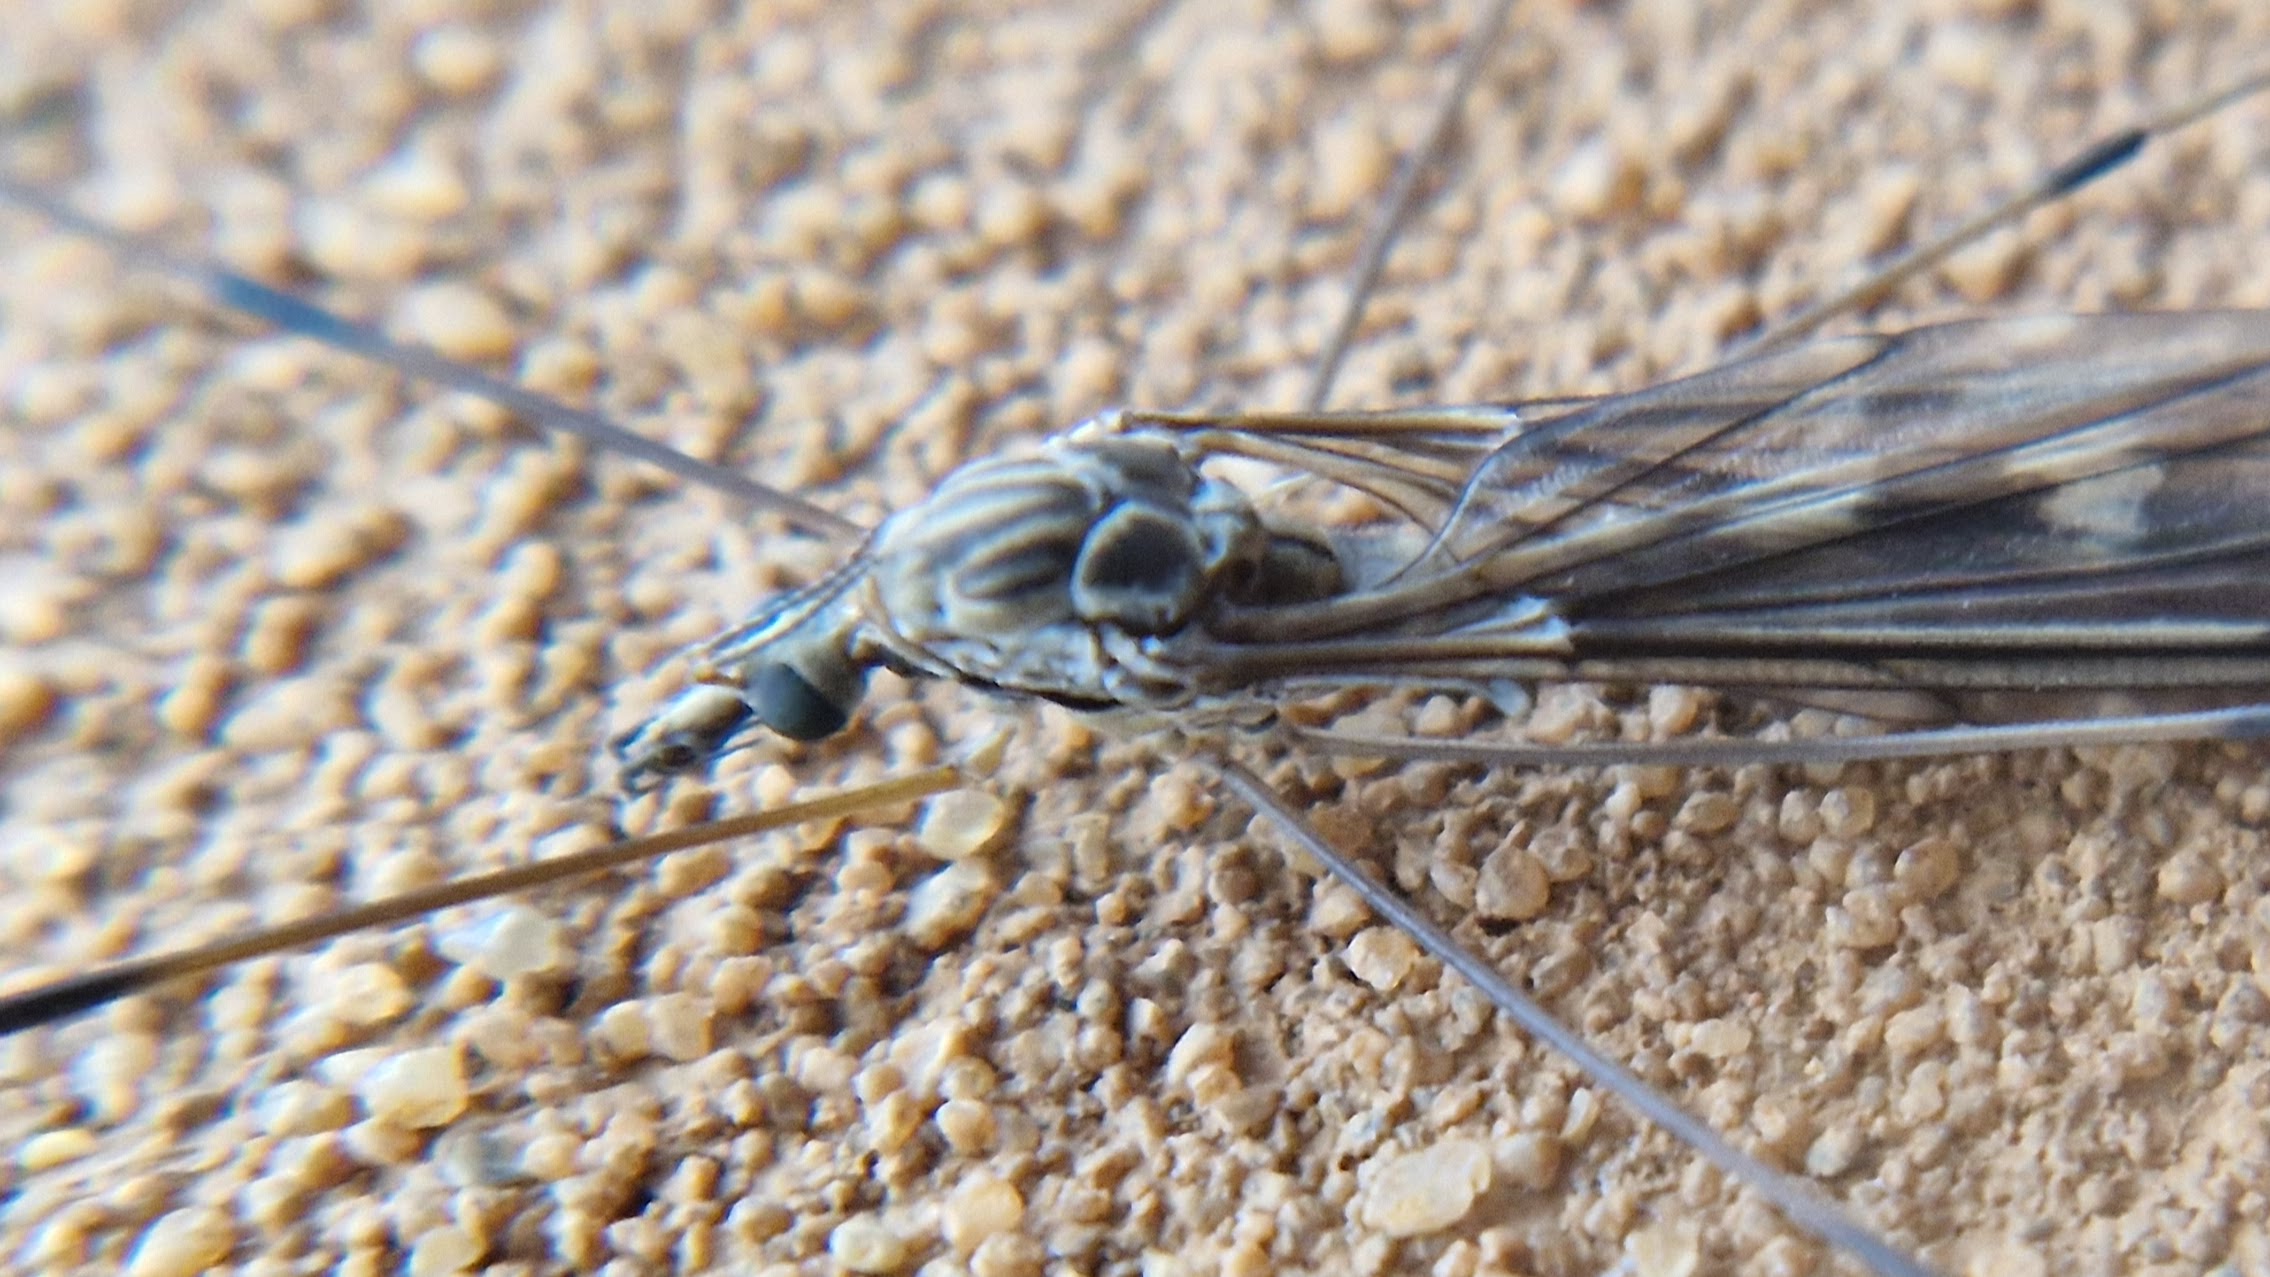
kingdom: Animalia
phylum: Arthropoda
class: Insecta
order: Diptera
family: Tipulidae
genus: Tipula
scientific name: Tipula rufina
